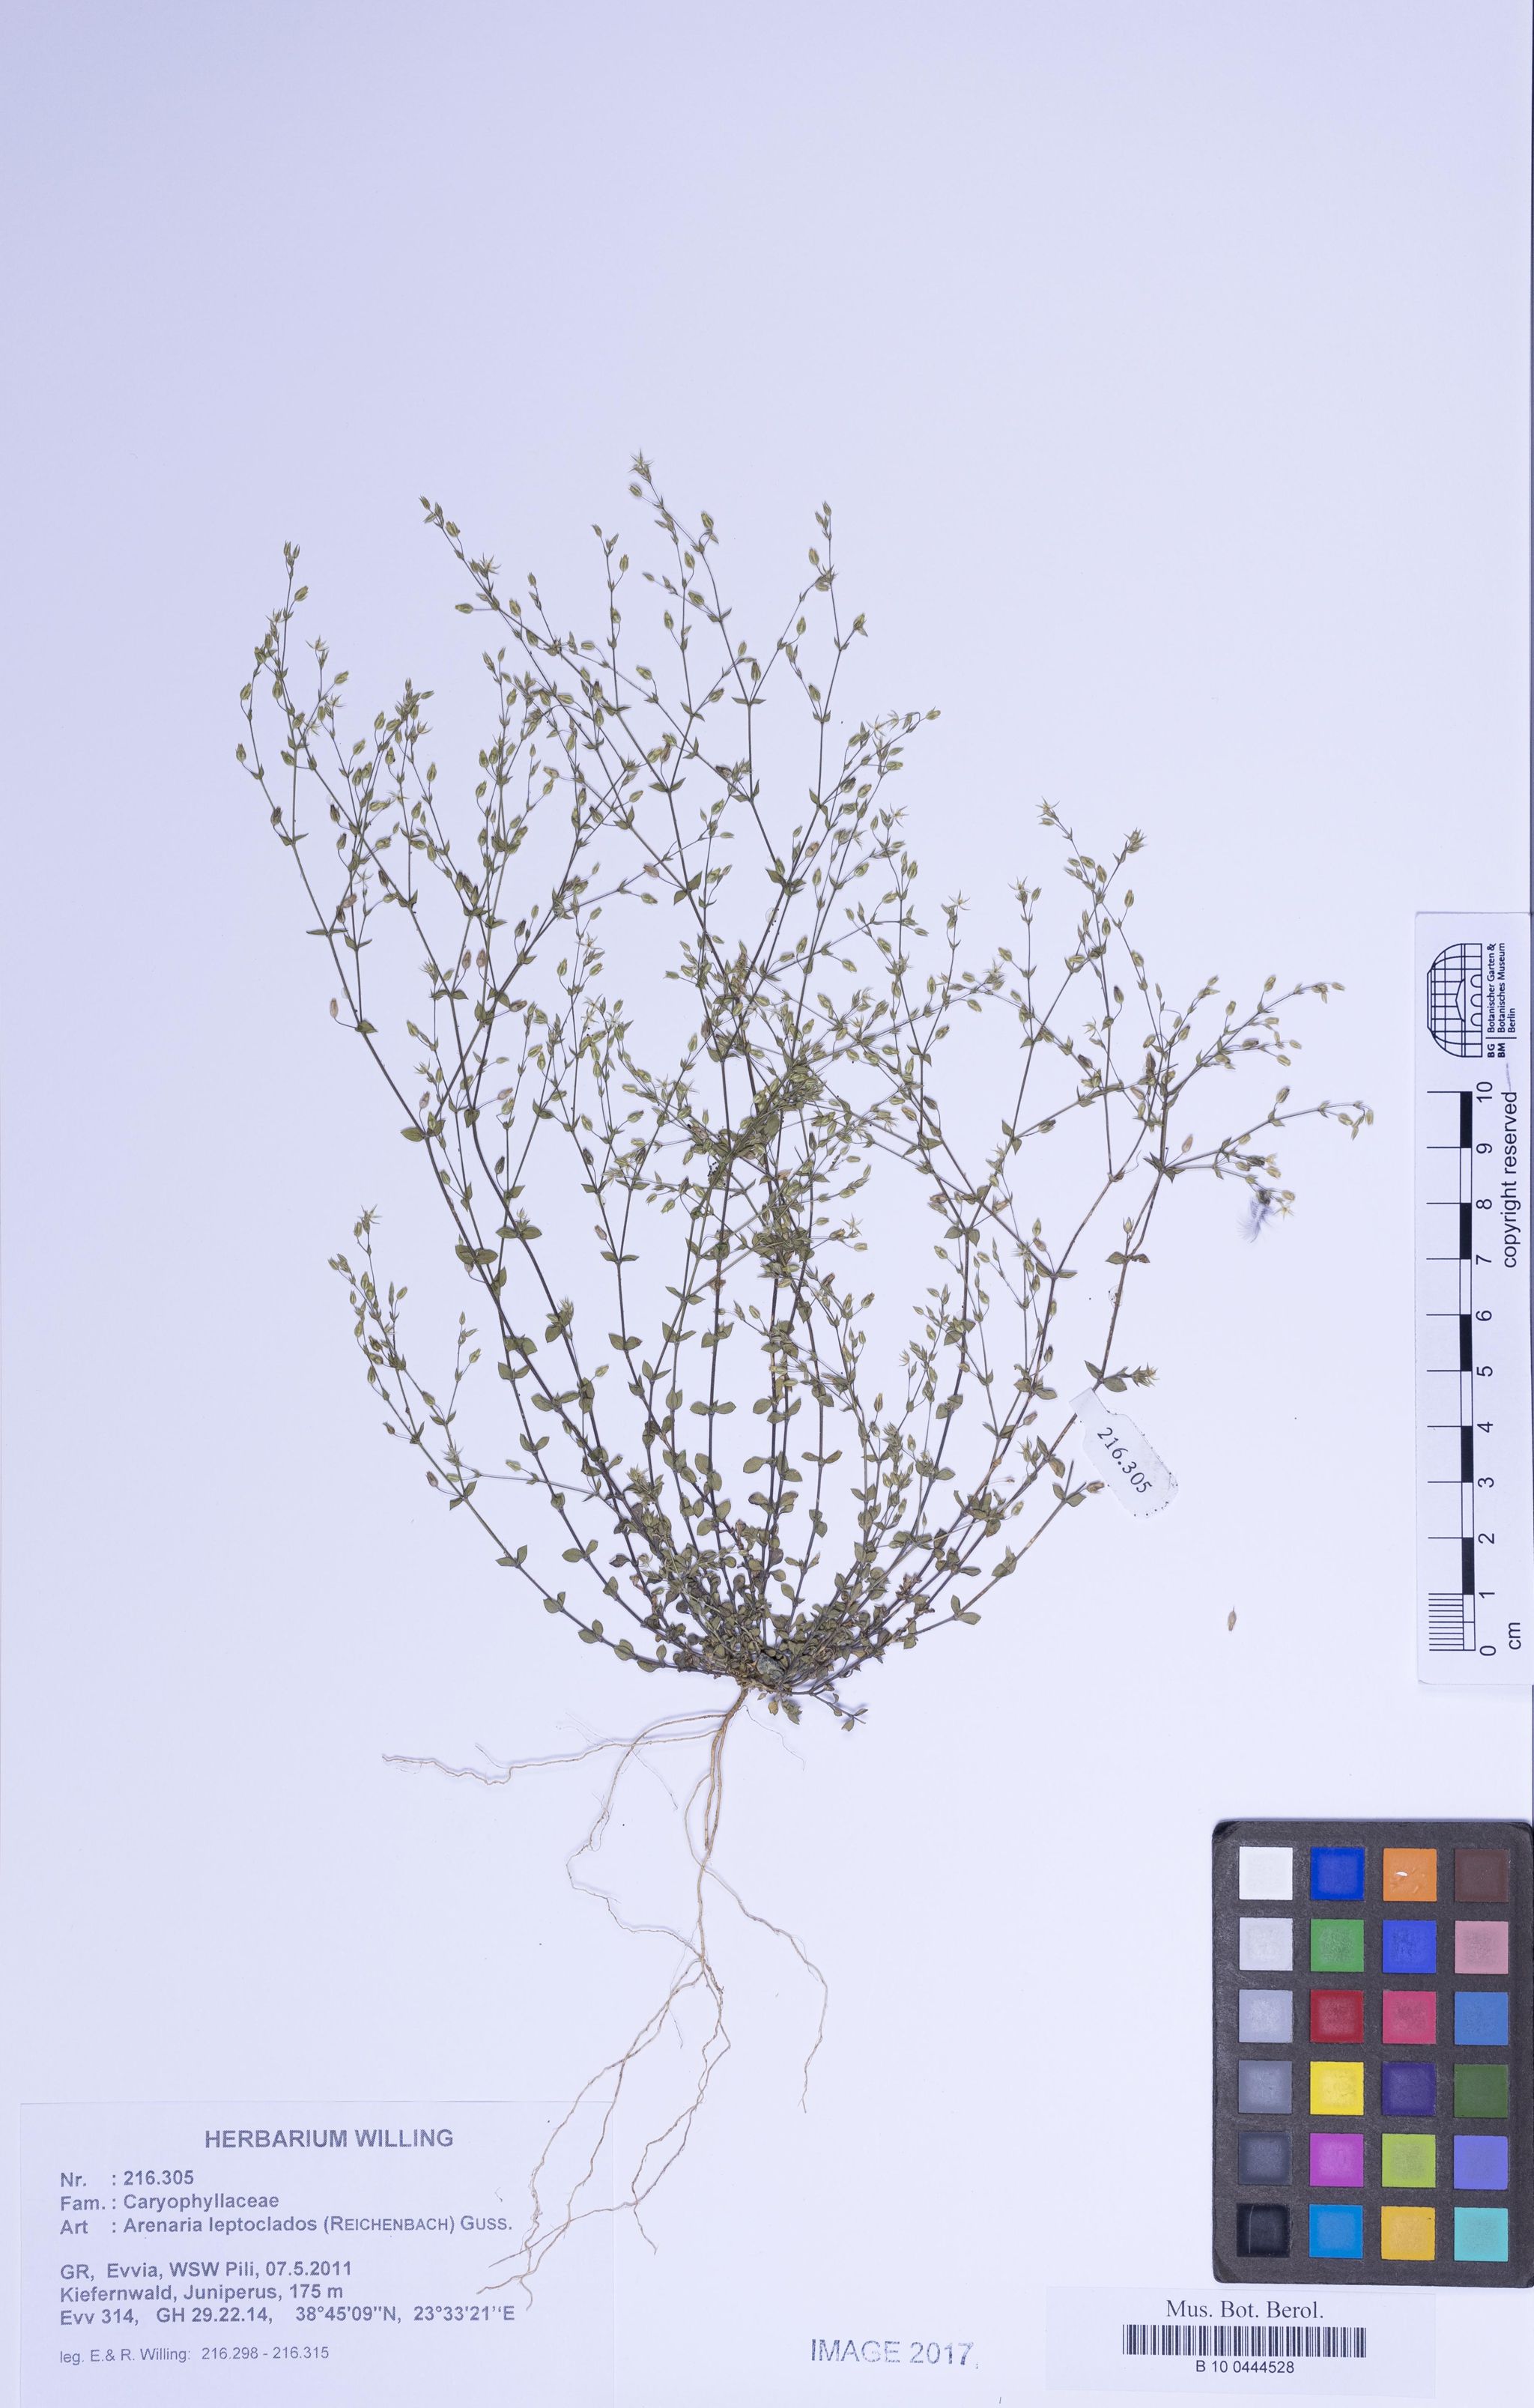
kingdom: Plantae
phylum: Tracheophyta
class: Magnoliopsida
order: Caryophyllales
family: Caryophyllaceae
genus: Arenaria
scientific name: Arenaria leptoclados
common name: Thyme-leaved sandwort
